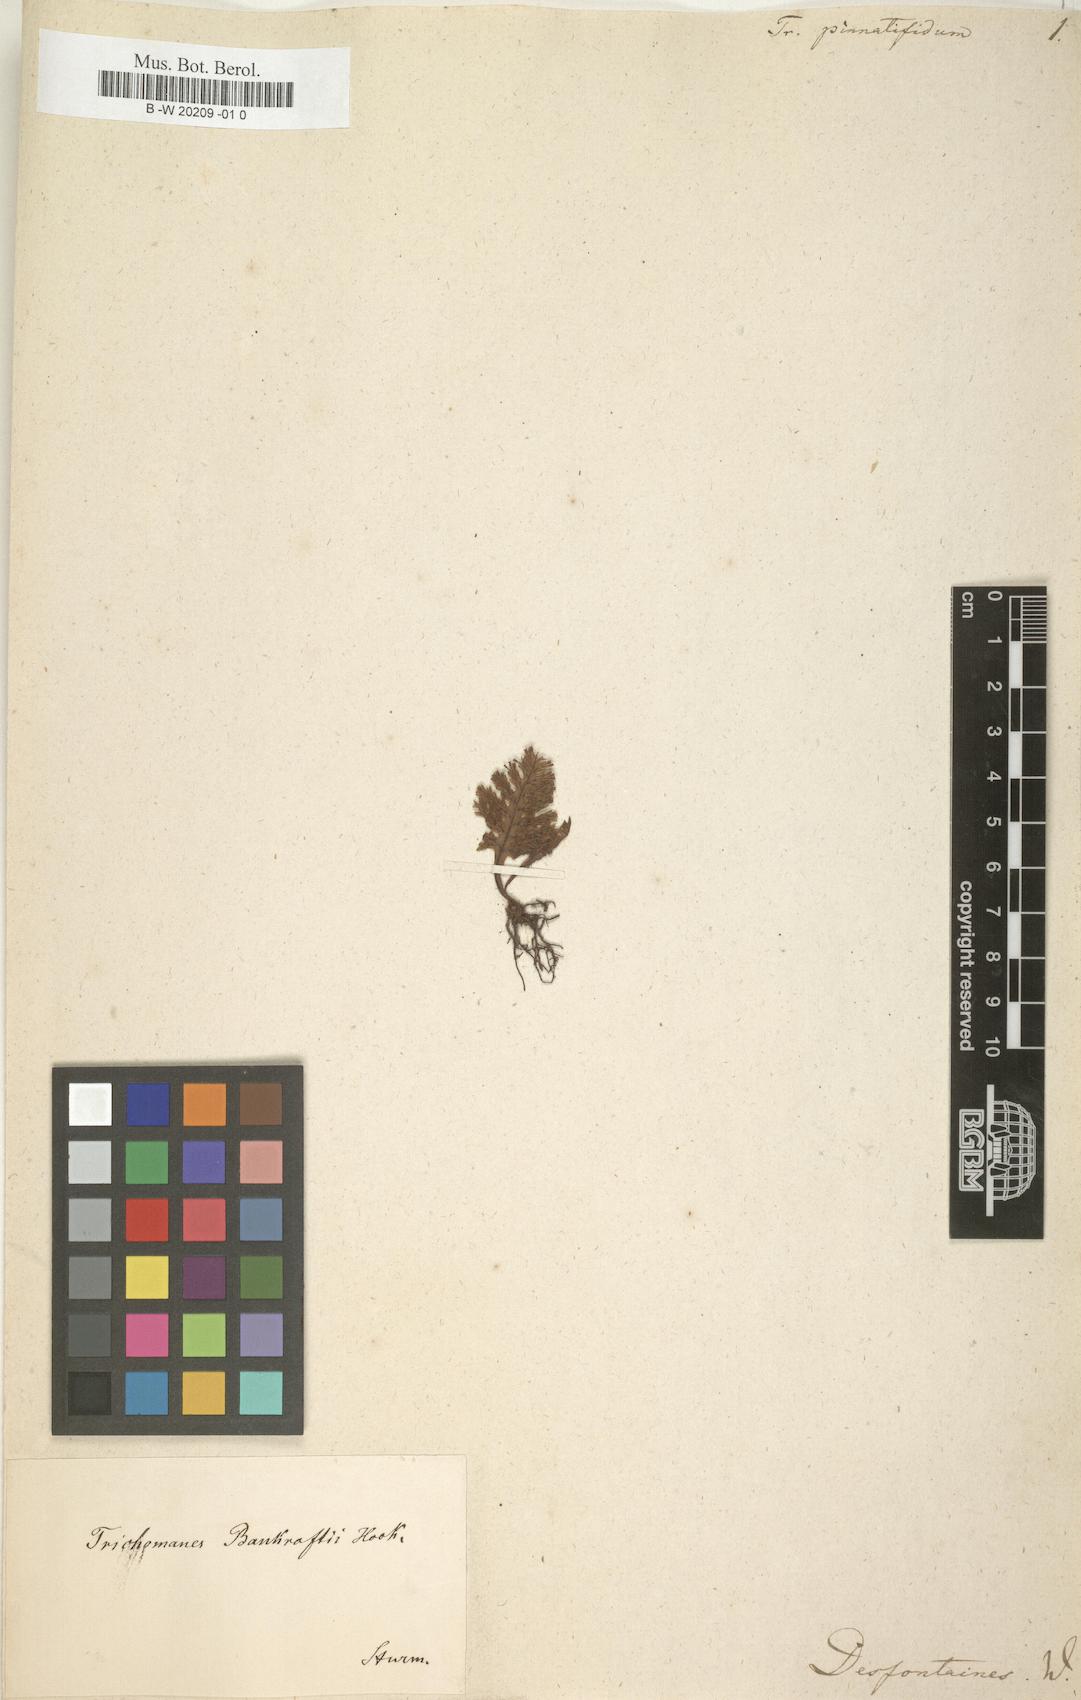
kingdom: Plantae
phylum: Tracheophyta
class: Polypodiopsida
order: Hymenophyllales
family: Hymenophyllaceae
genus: Trichomanes
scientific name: Trichomanes pinnatifidum
